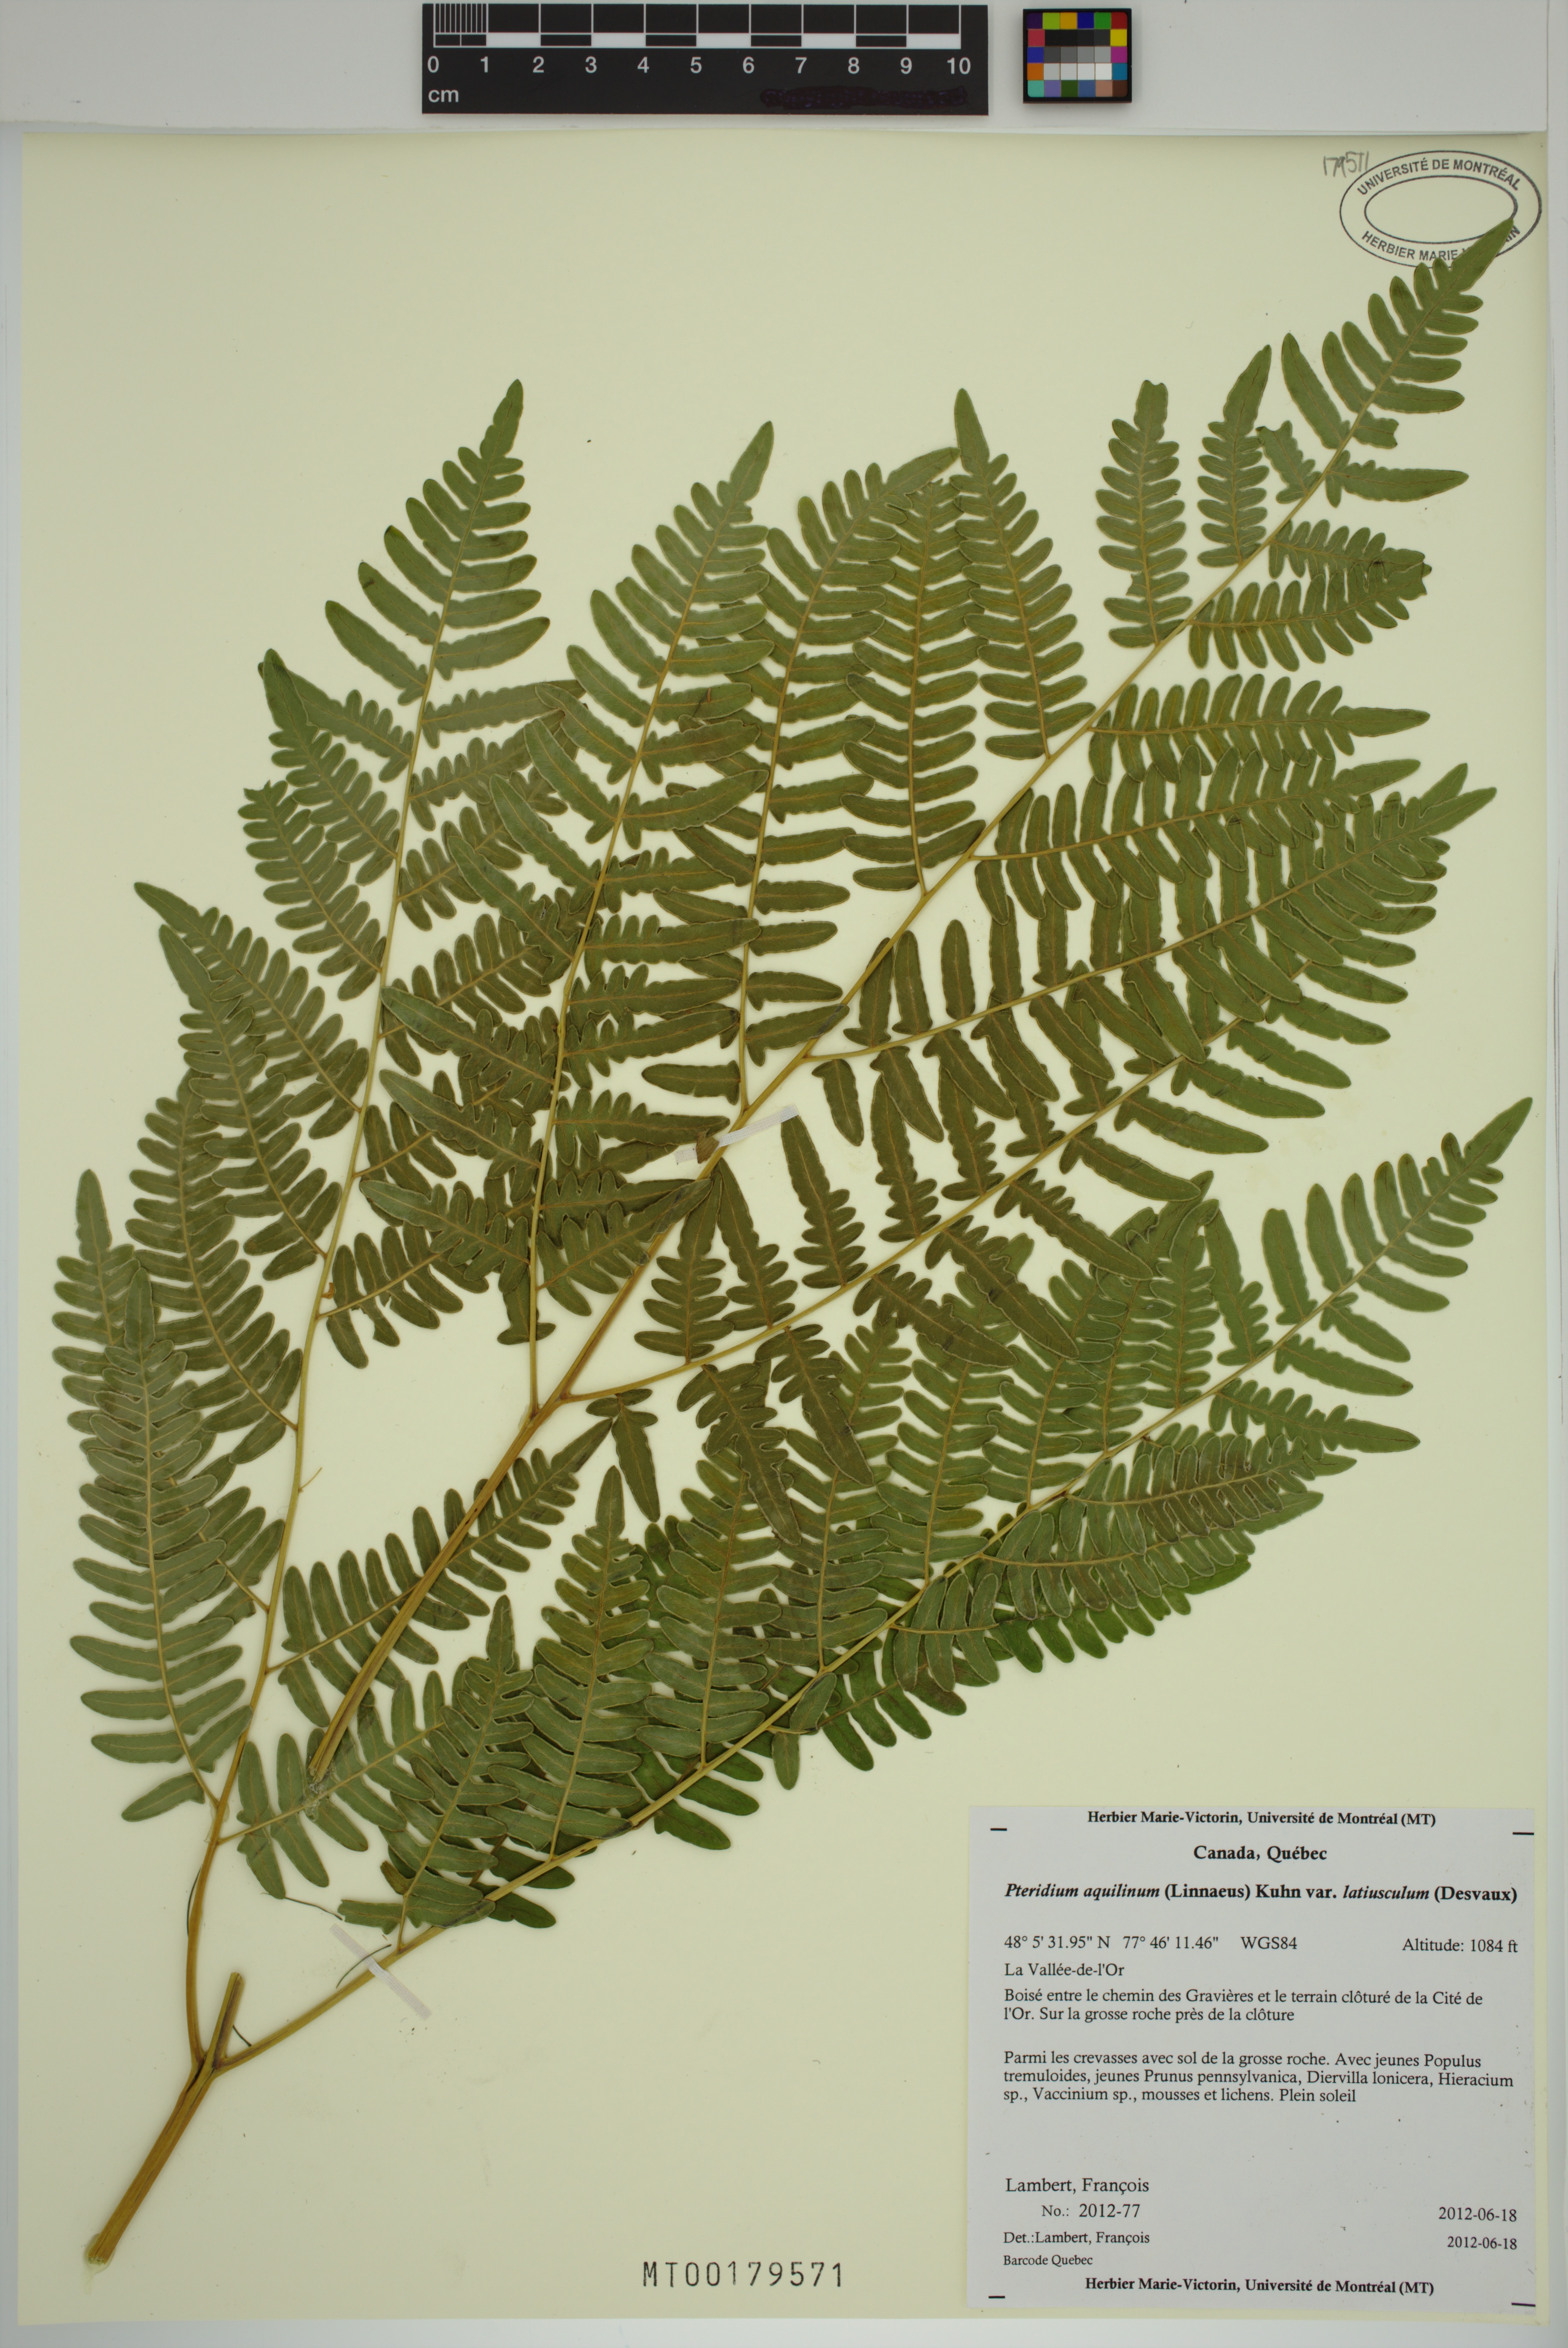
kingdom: Plantae
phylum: Tracheophyta
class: Polypodiopsida
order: Polypodiales
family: Dennstaedtiaceae
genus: Pteridium
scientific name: Pteridium aquilinum
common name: Bracken
